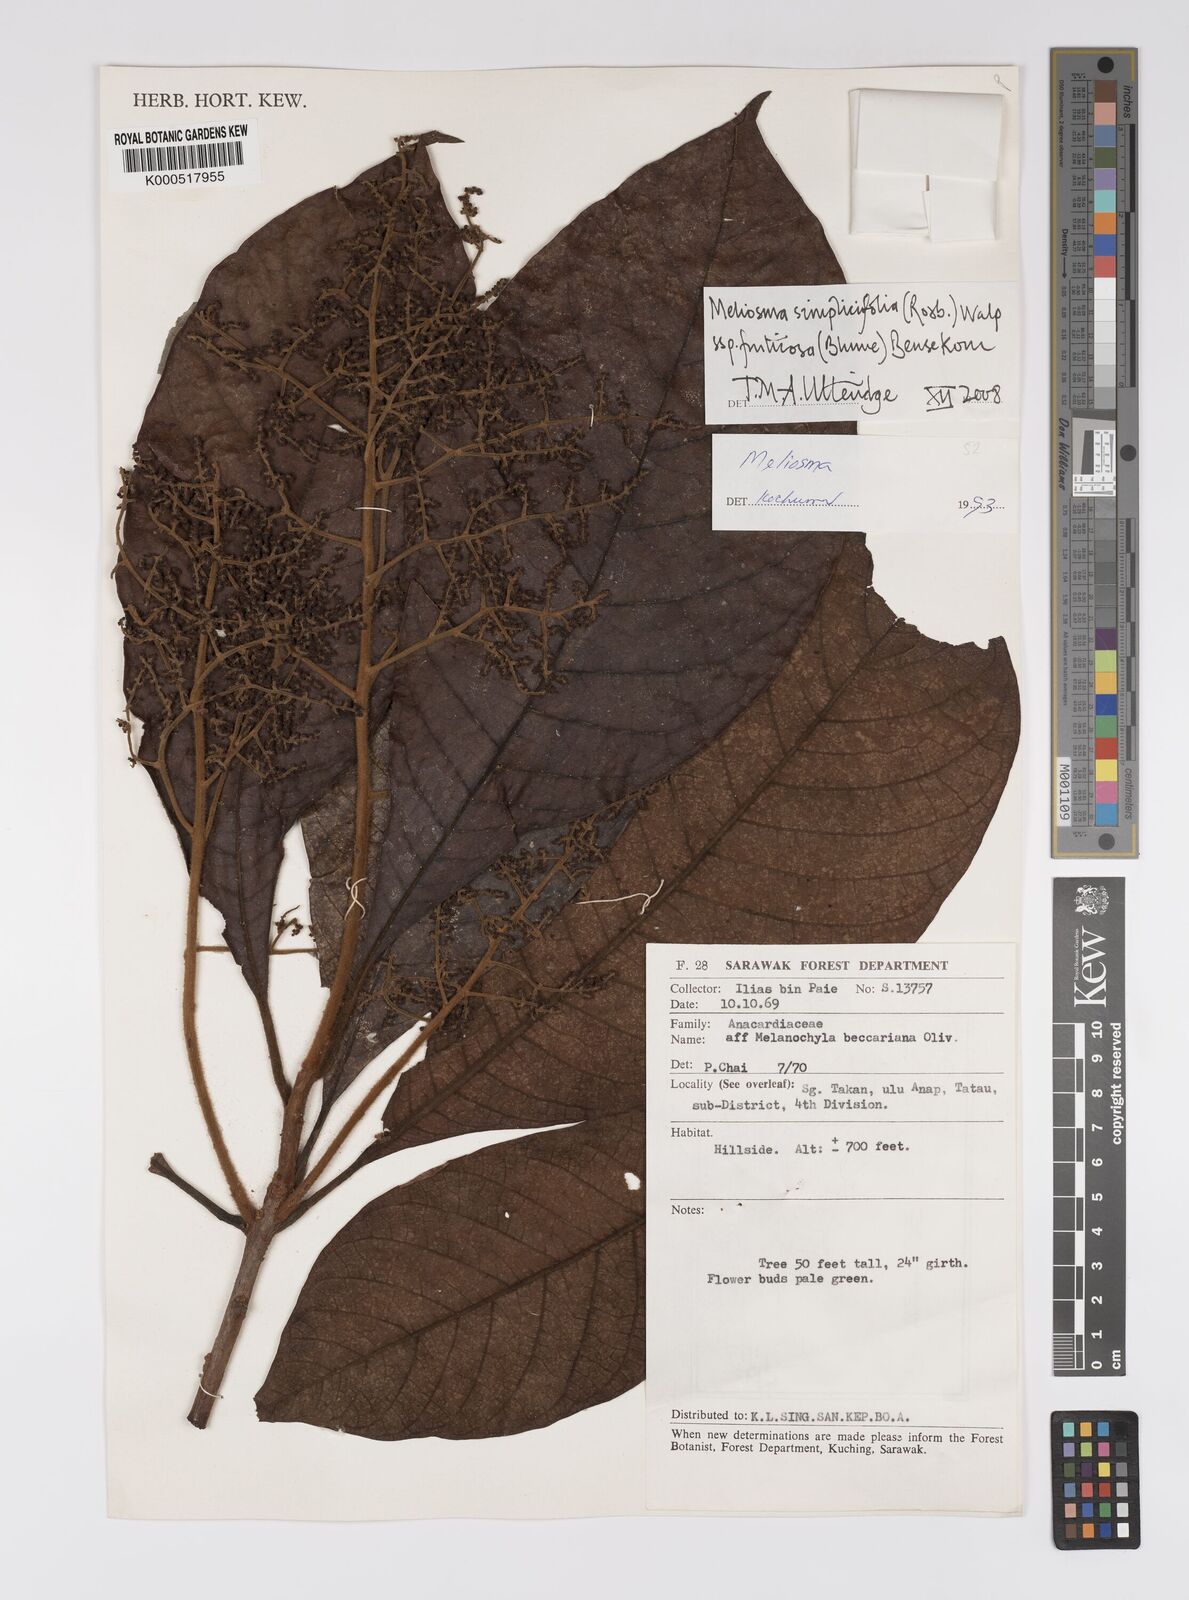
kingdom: Plantae
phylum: Tracheophyta
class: Magnoliopsida
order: Proteales
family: Sabiaceae
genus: Meliosma
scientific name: Meliosma simplicifolia
